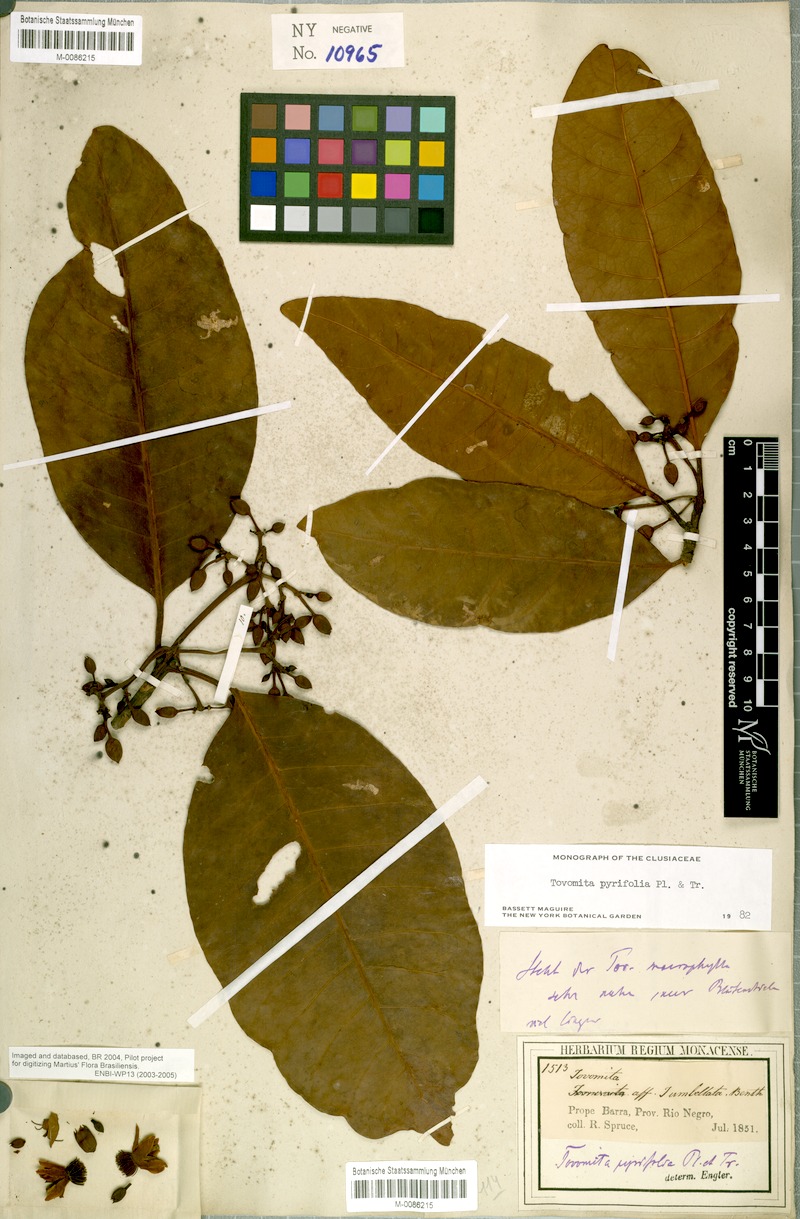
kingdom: Plantae
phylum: Tracheophyta
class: Magnoliopsida
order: Malpighiales
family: Clusiaceae
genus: Tovomita
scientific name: Tovomita pyrifolia
